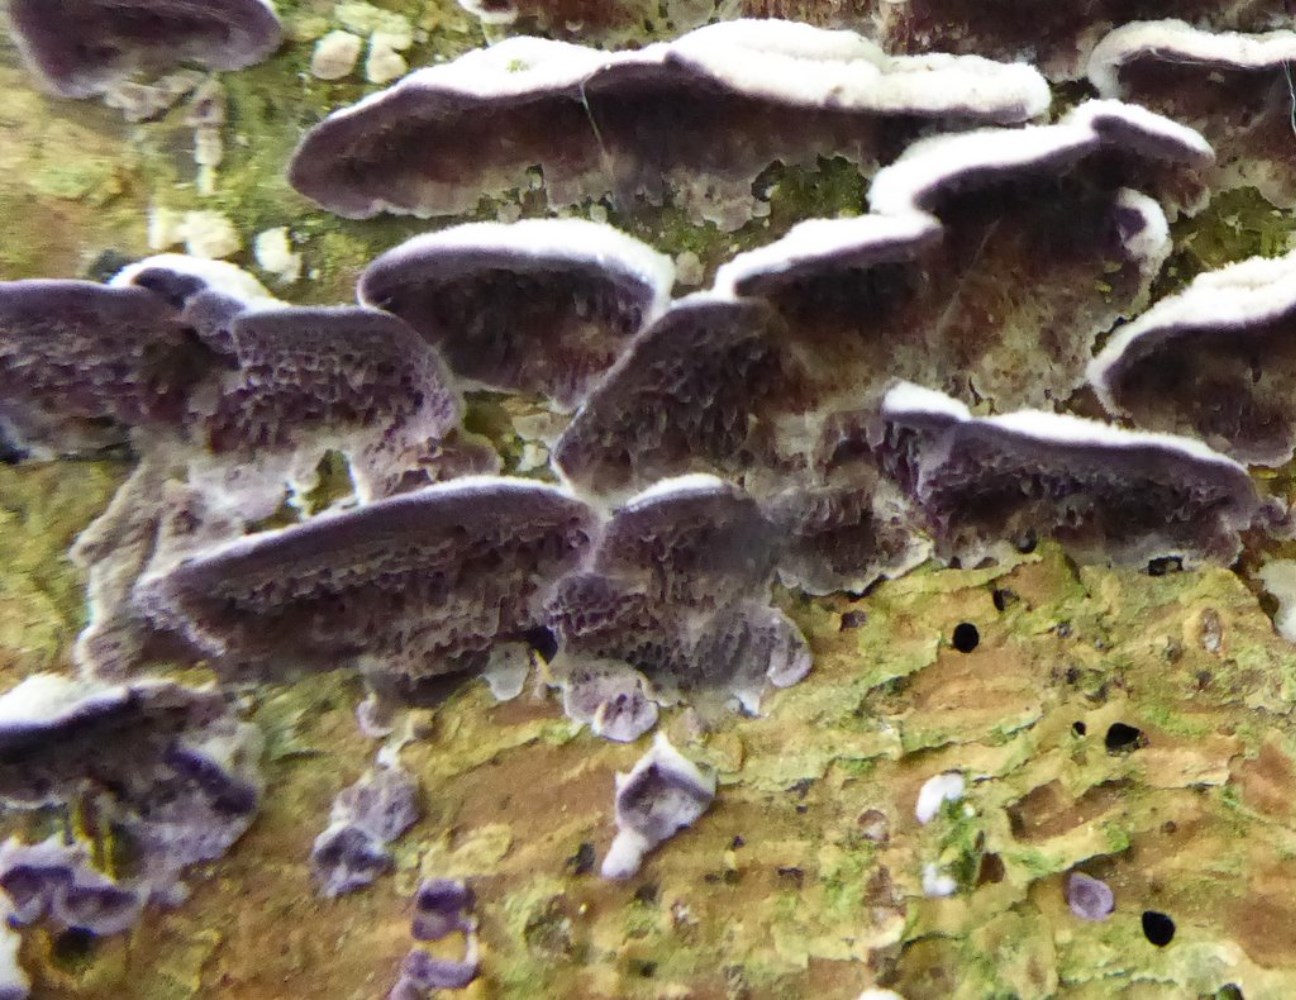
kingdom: Fungi
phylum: Basidiomycota
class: Agaricomycetes
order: Hymenochaetales
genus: Trichaptum
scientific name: Trichaptum abietinum
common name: almindelig violporesvamp
